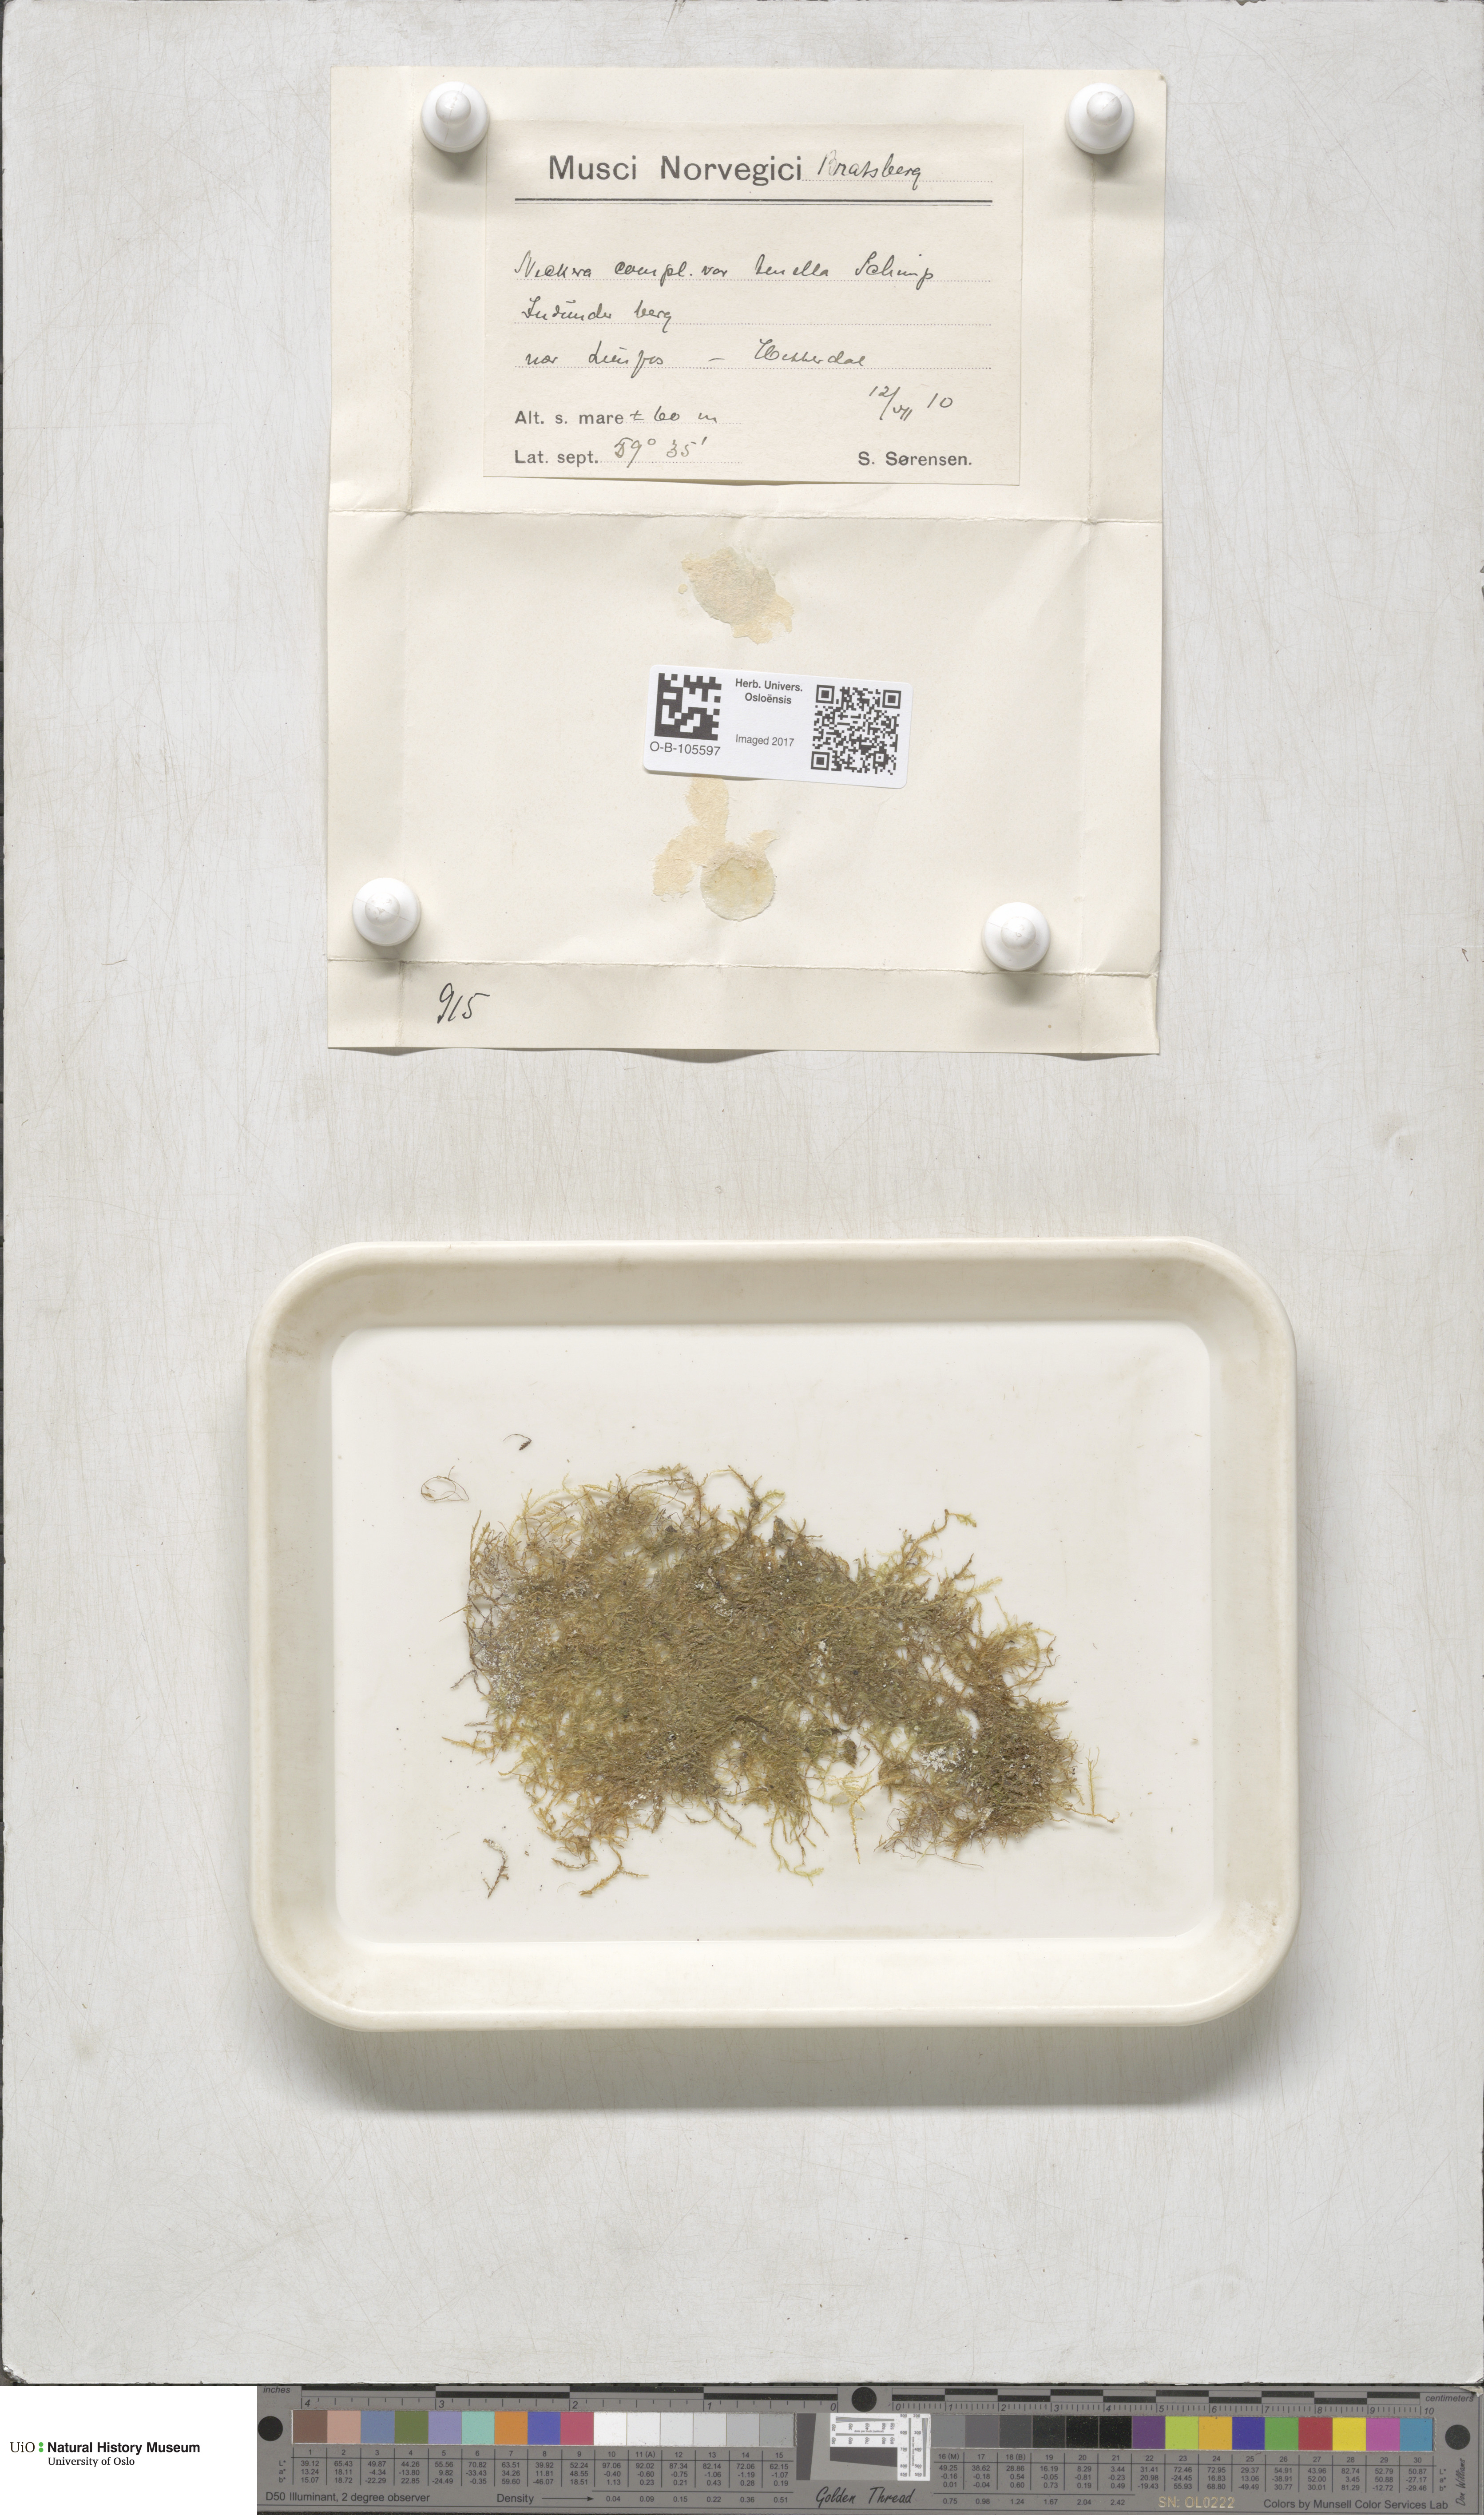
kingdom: Plantae
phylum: Bryophyta
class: Bryopsida
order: Hypnales
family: Neckeraceae
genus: Alleniella
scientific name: Alleniella complanata
